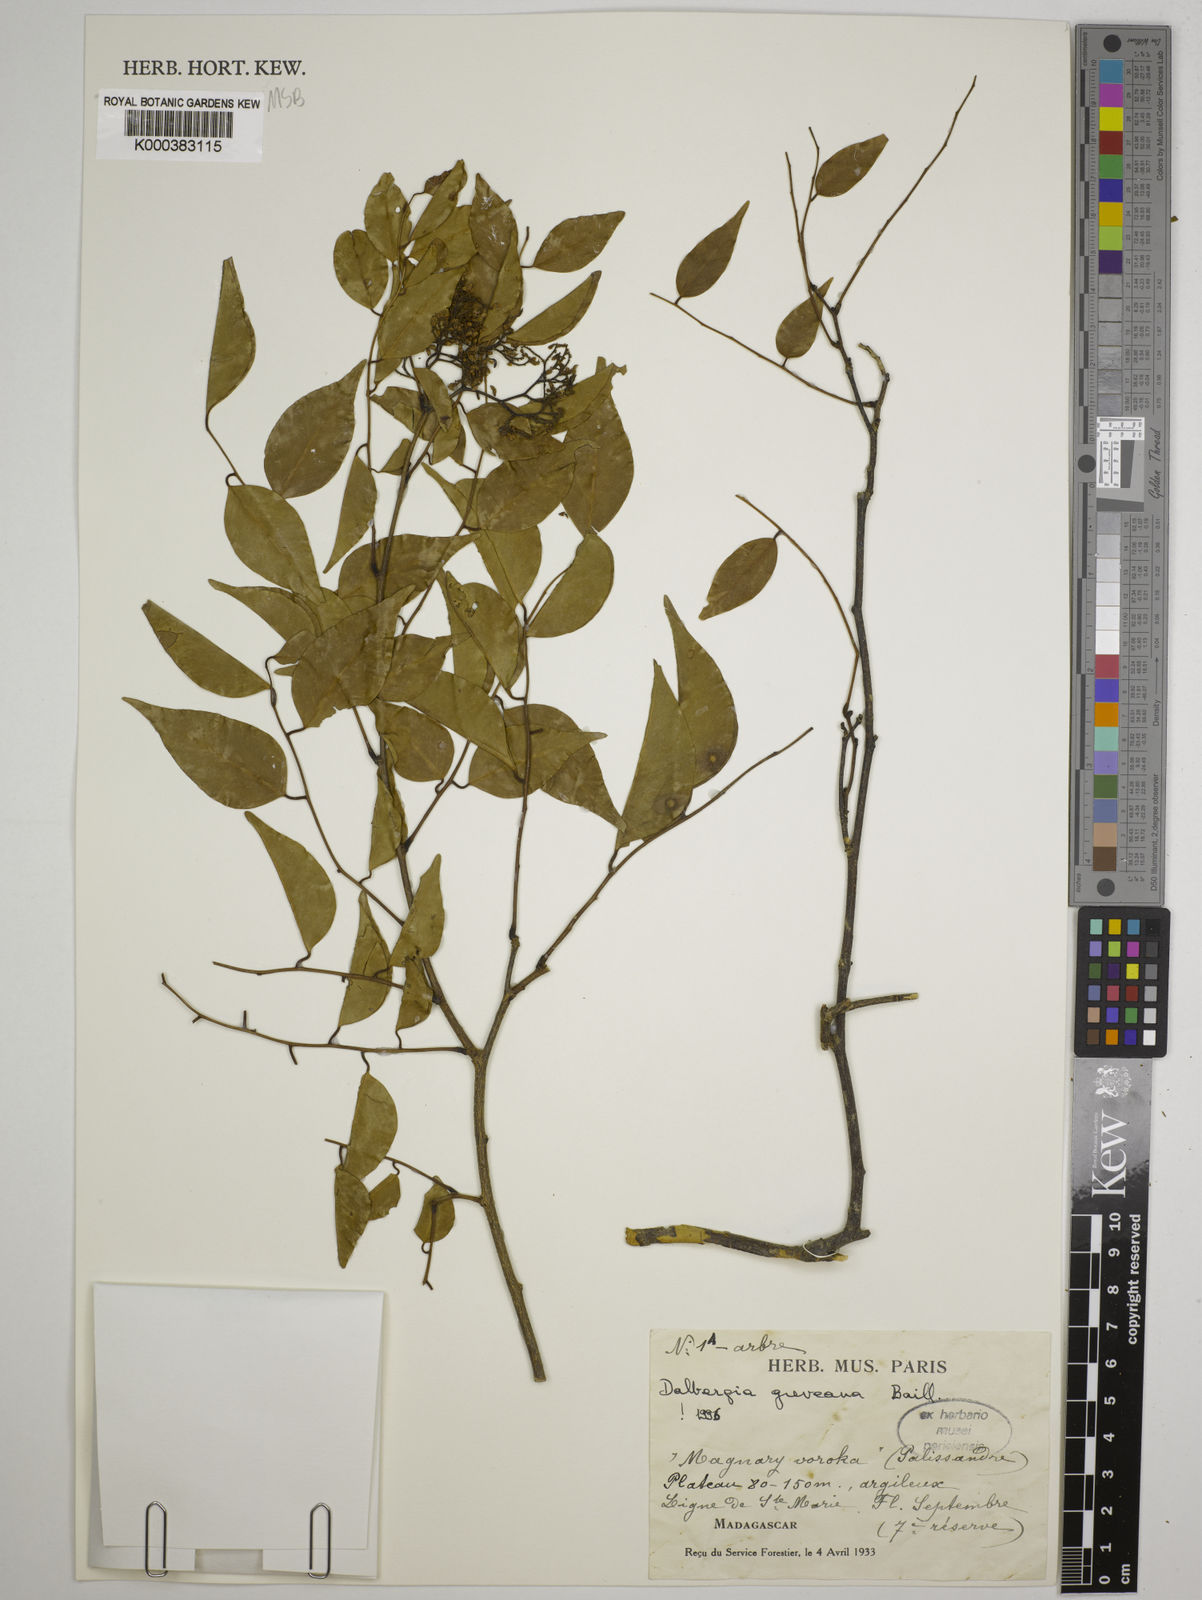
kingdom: Plantae
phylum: Tracheophyta
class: Magnoliopsida
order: Fabales
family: Fabaceae
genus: Dalbergia
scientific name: Dalbergia greveana
